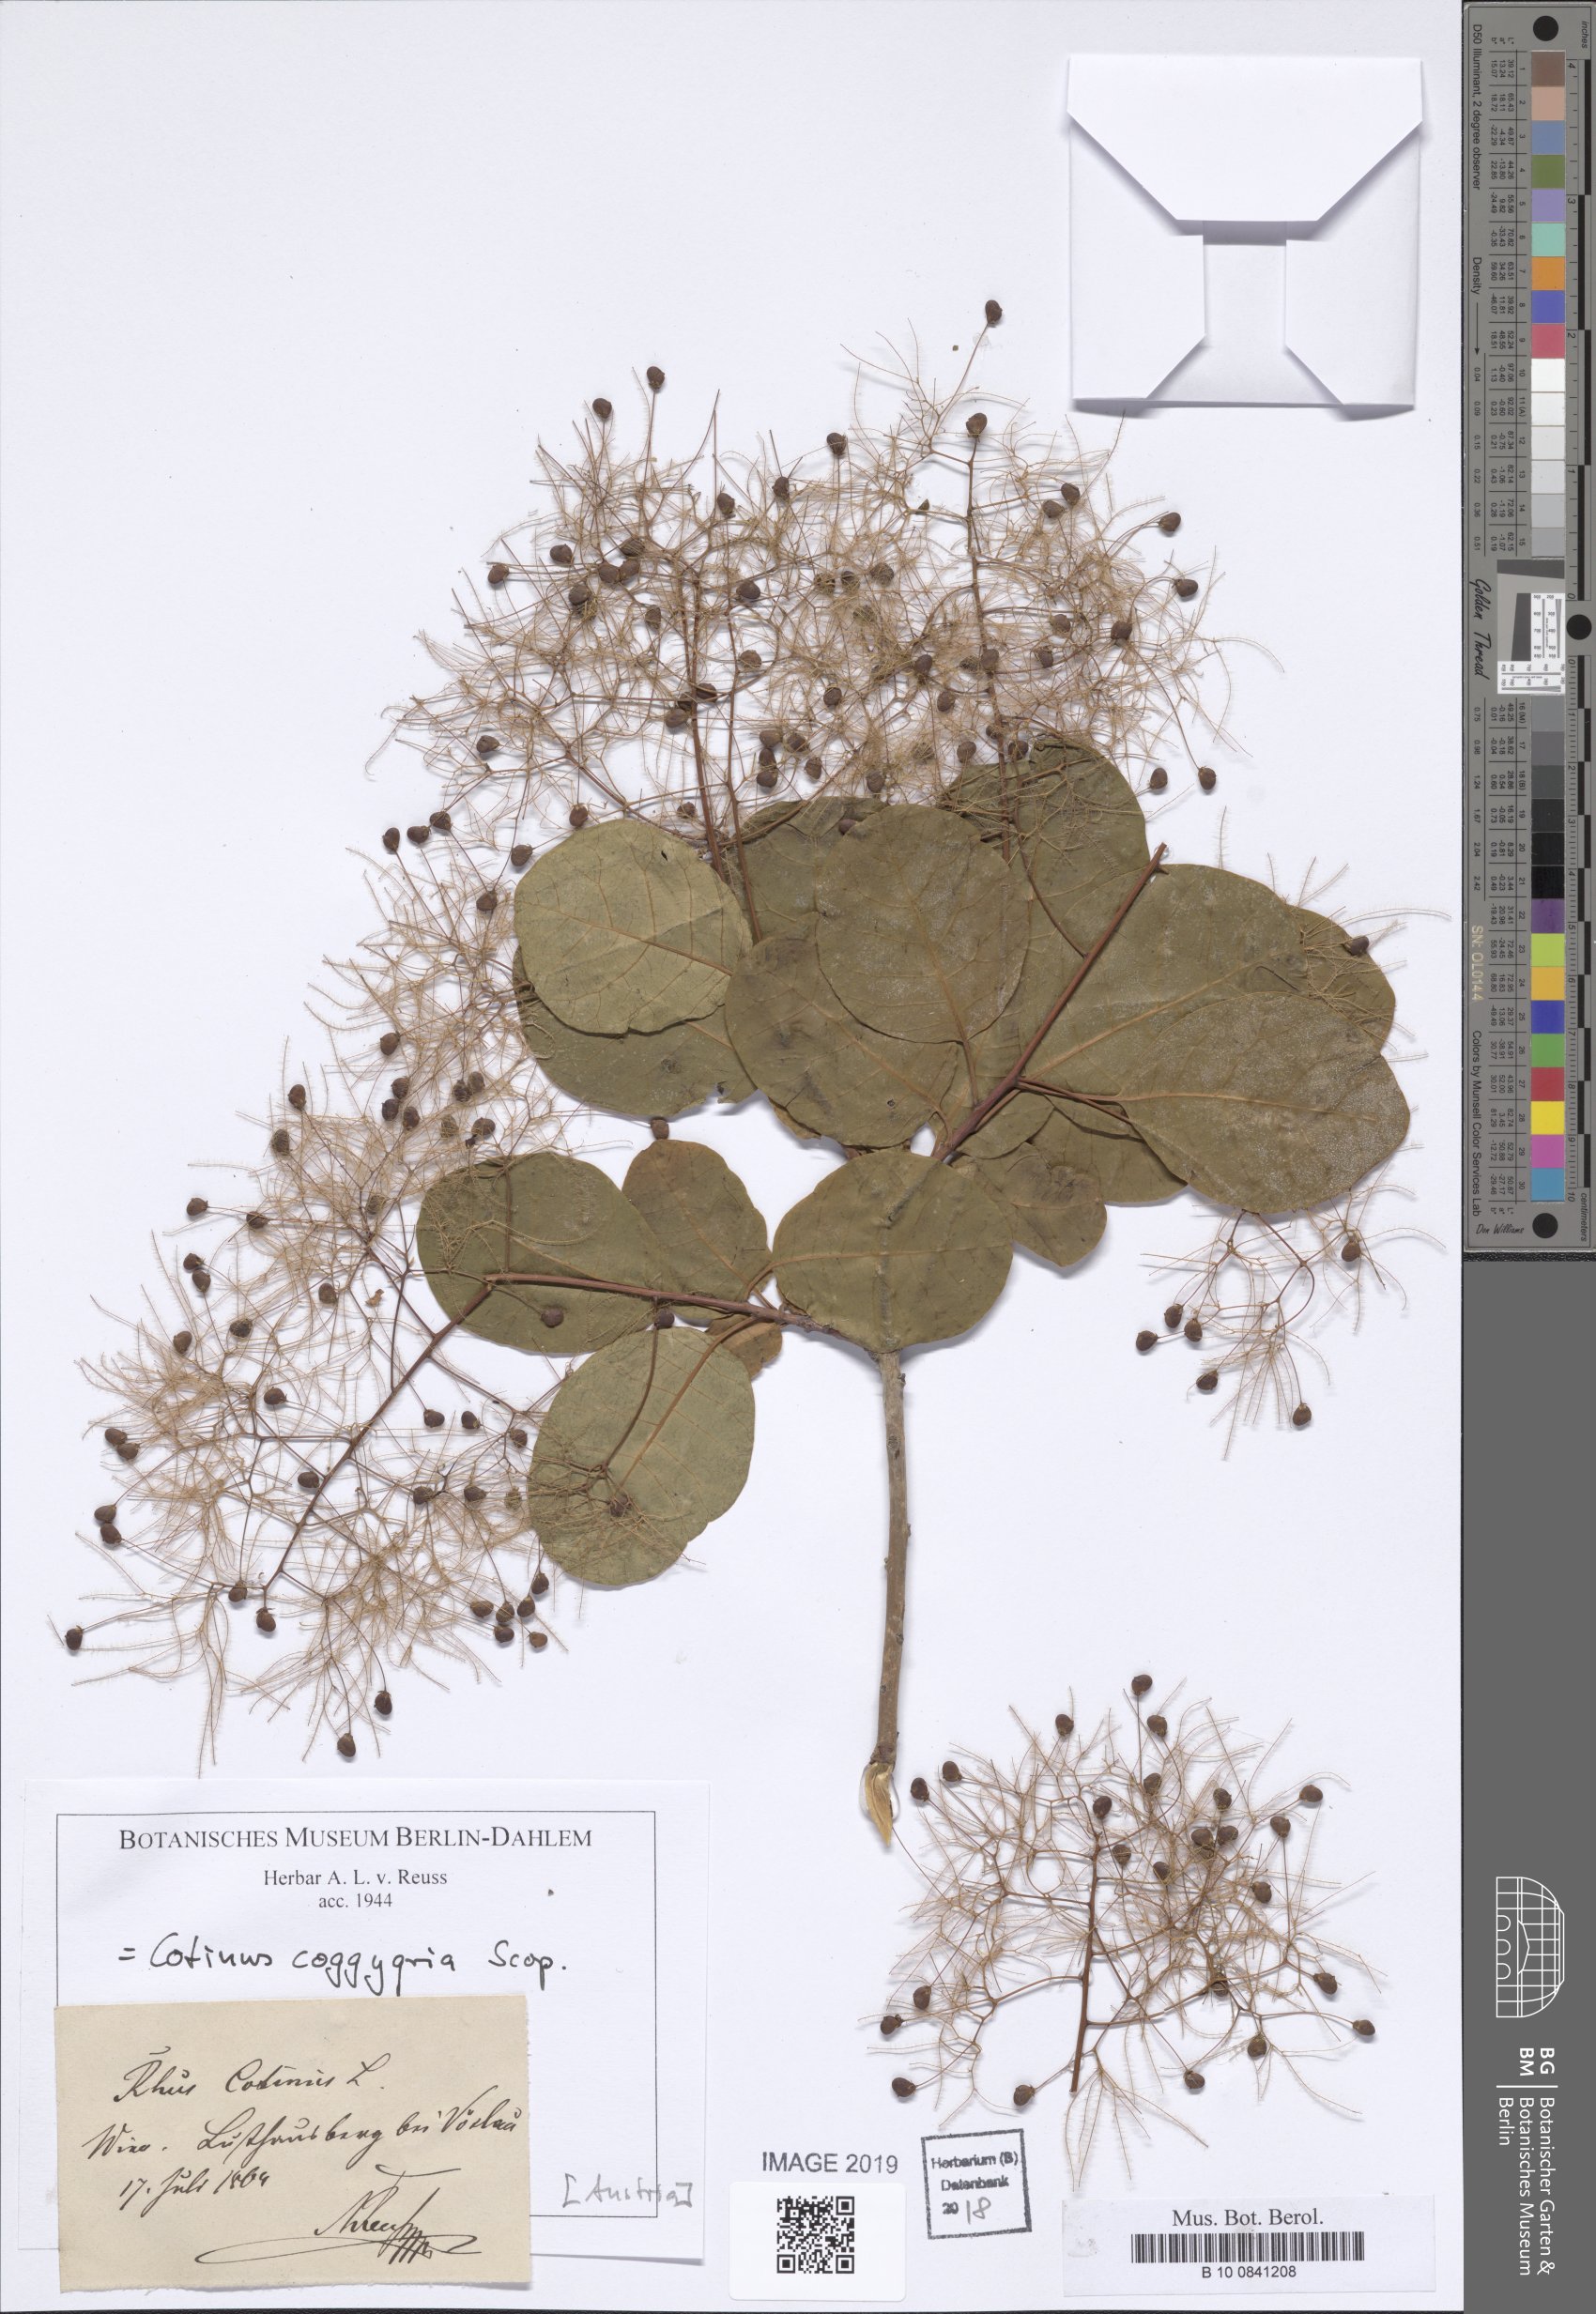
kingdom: Plantae
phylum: Tracheophyta
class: Magnoliopsida
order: Sapindales
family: Anacardiaceae
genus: Cotinus
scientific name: Cotinus coggygria
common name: Smoke-tree
